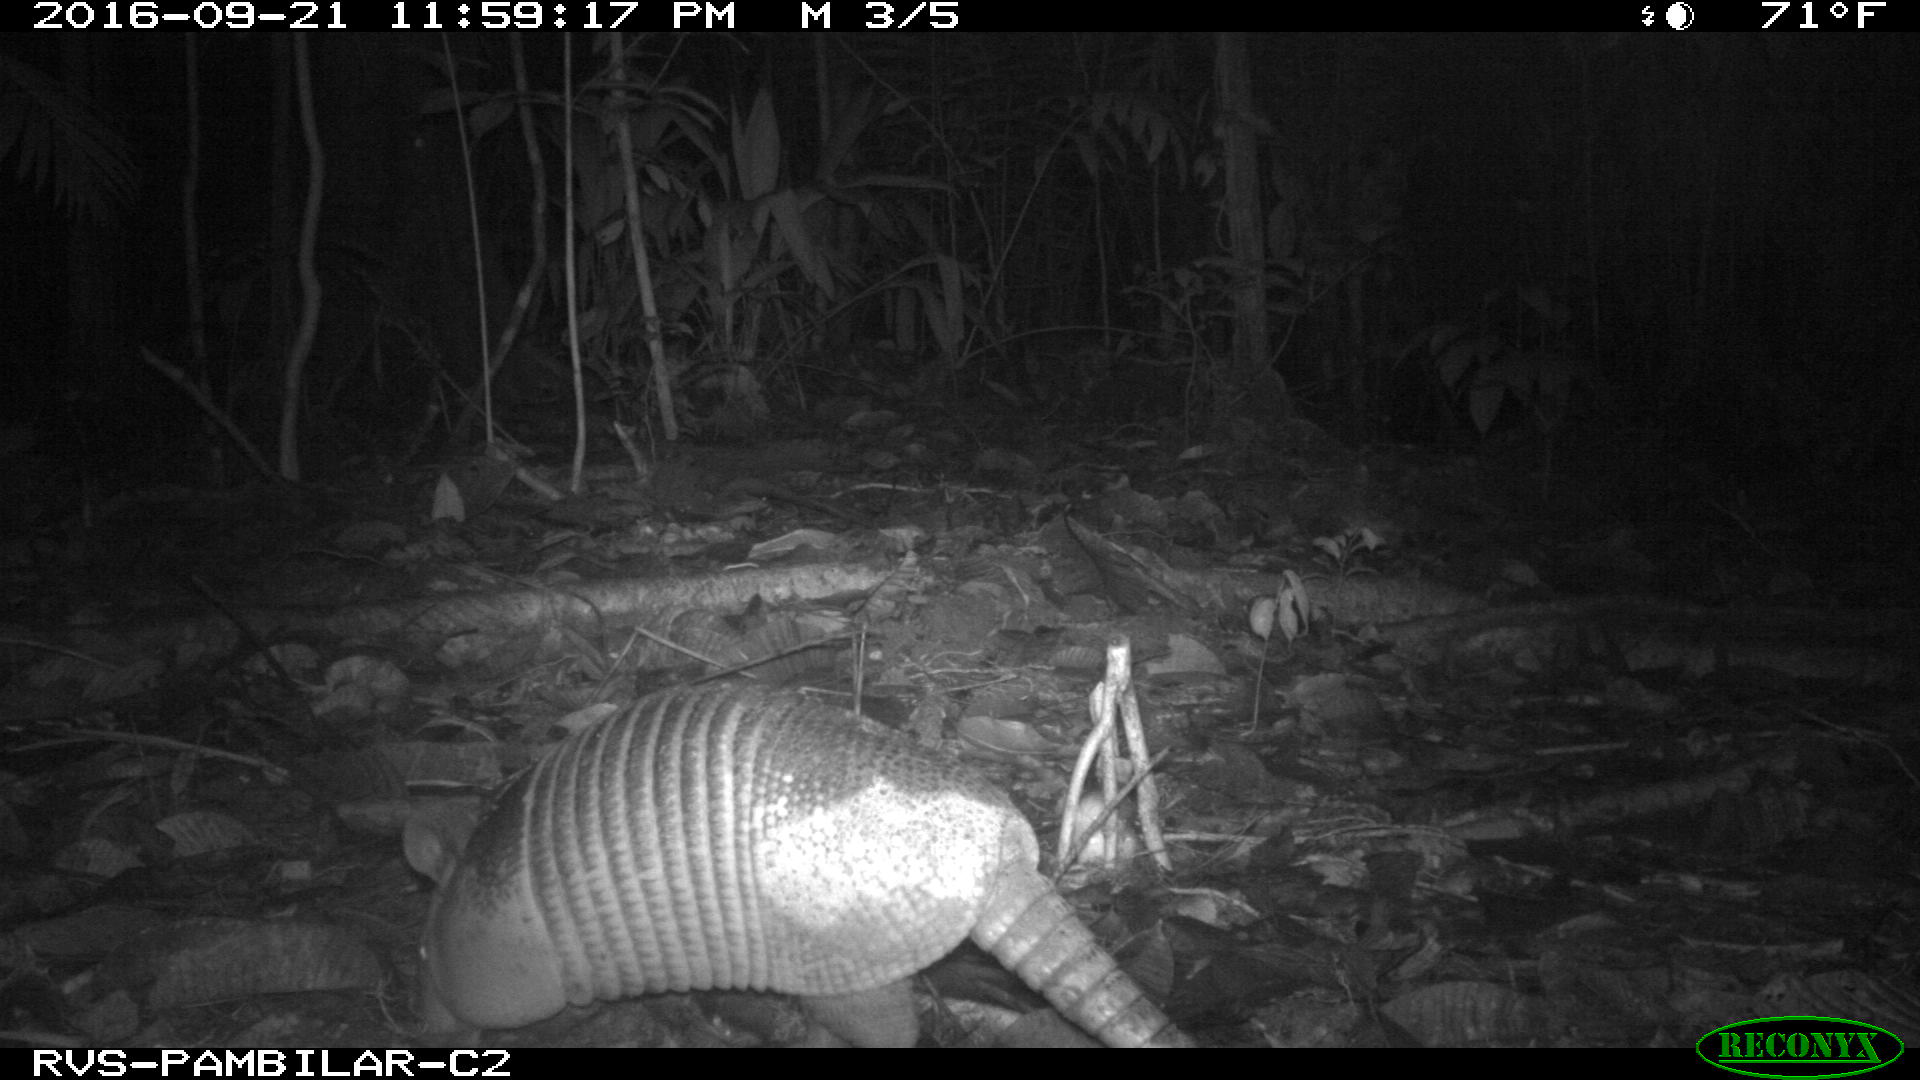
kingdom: Animalia
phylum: Chordata
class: Mammalia
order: Cingulata
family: Dasypodidae
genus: Dasypus
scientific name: Dasypus novemcinctus
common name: Nine-banded armadillo
